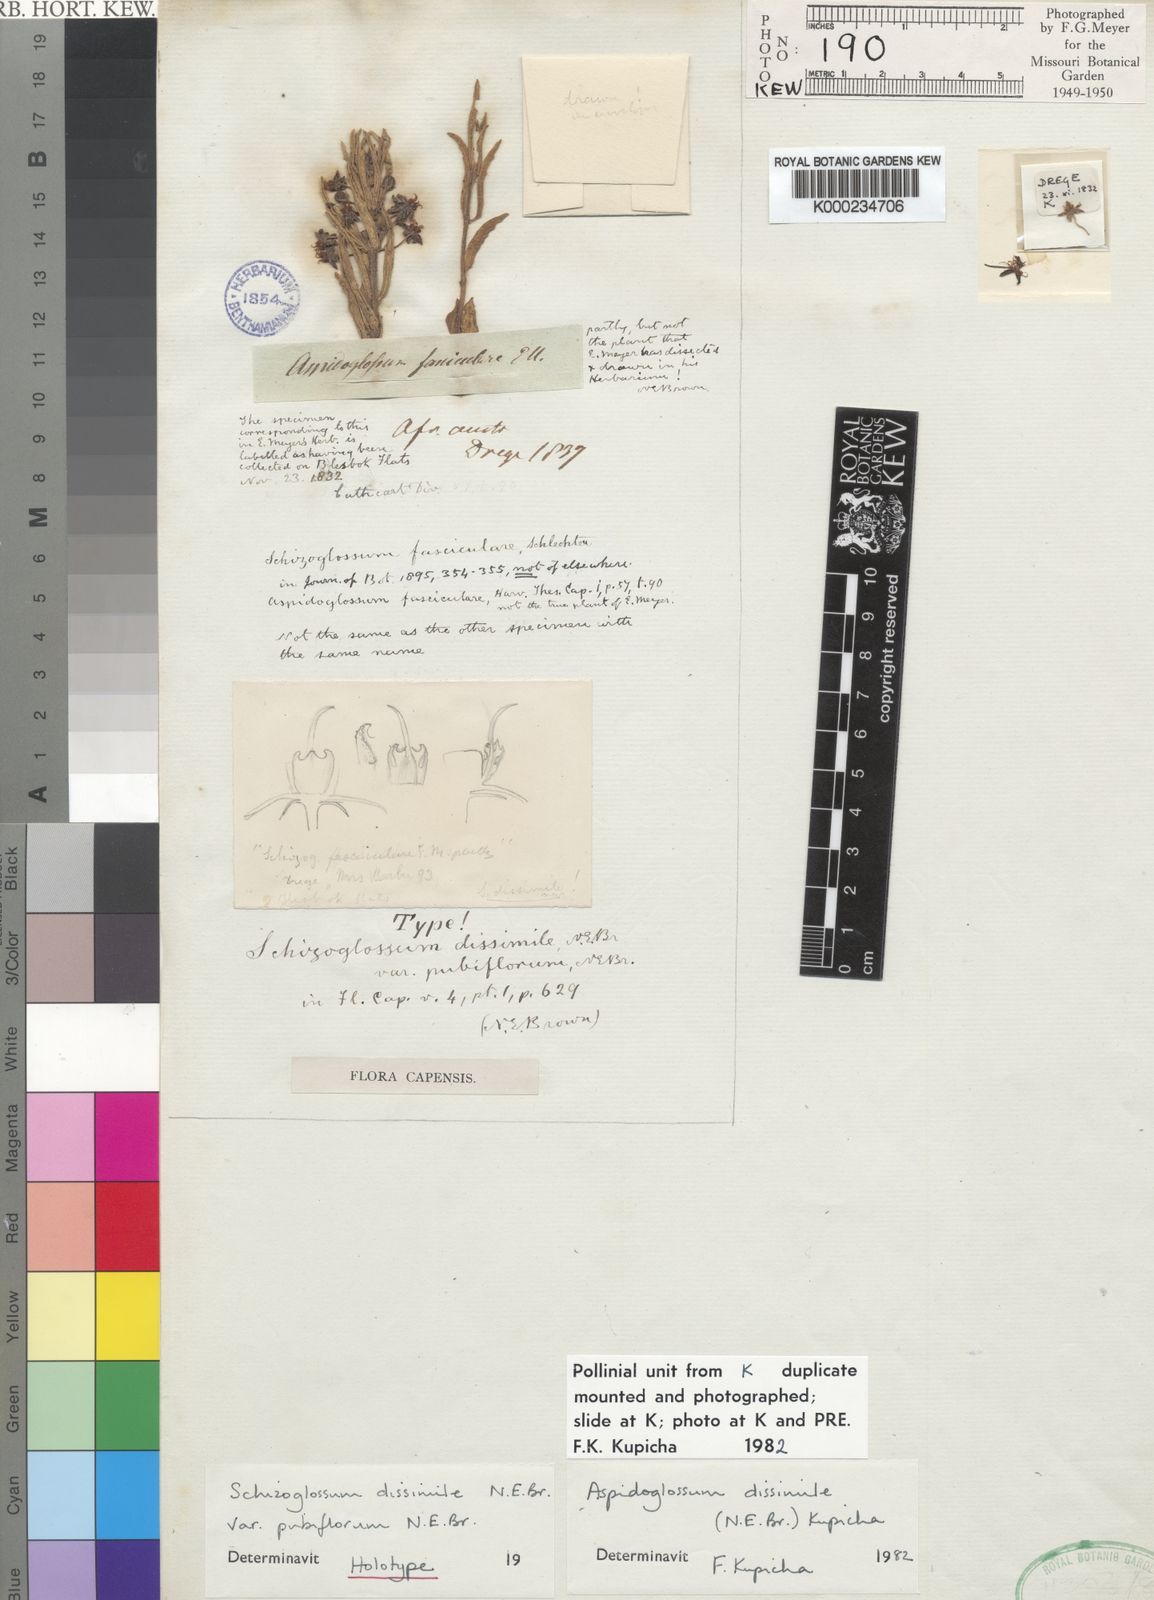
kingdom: Plantae
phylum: Tracheophyta
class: Magnoliopsida
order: Gentianales
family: Apocynaceae
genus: Aspidoglossum
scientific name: Aspidoglossum dissimile
